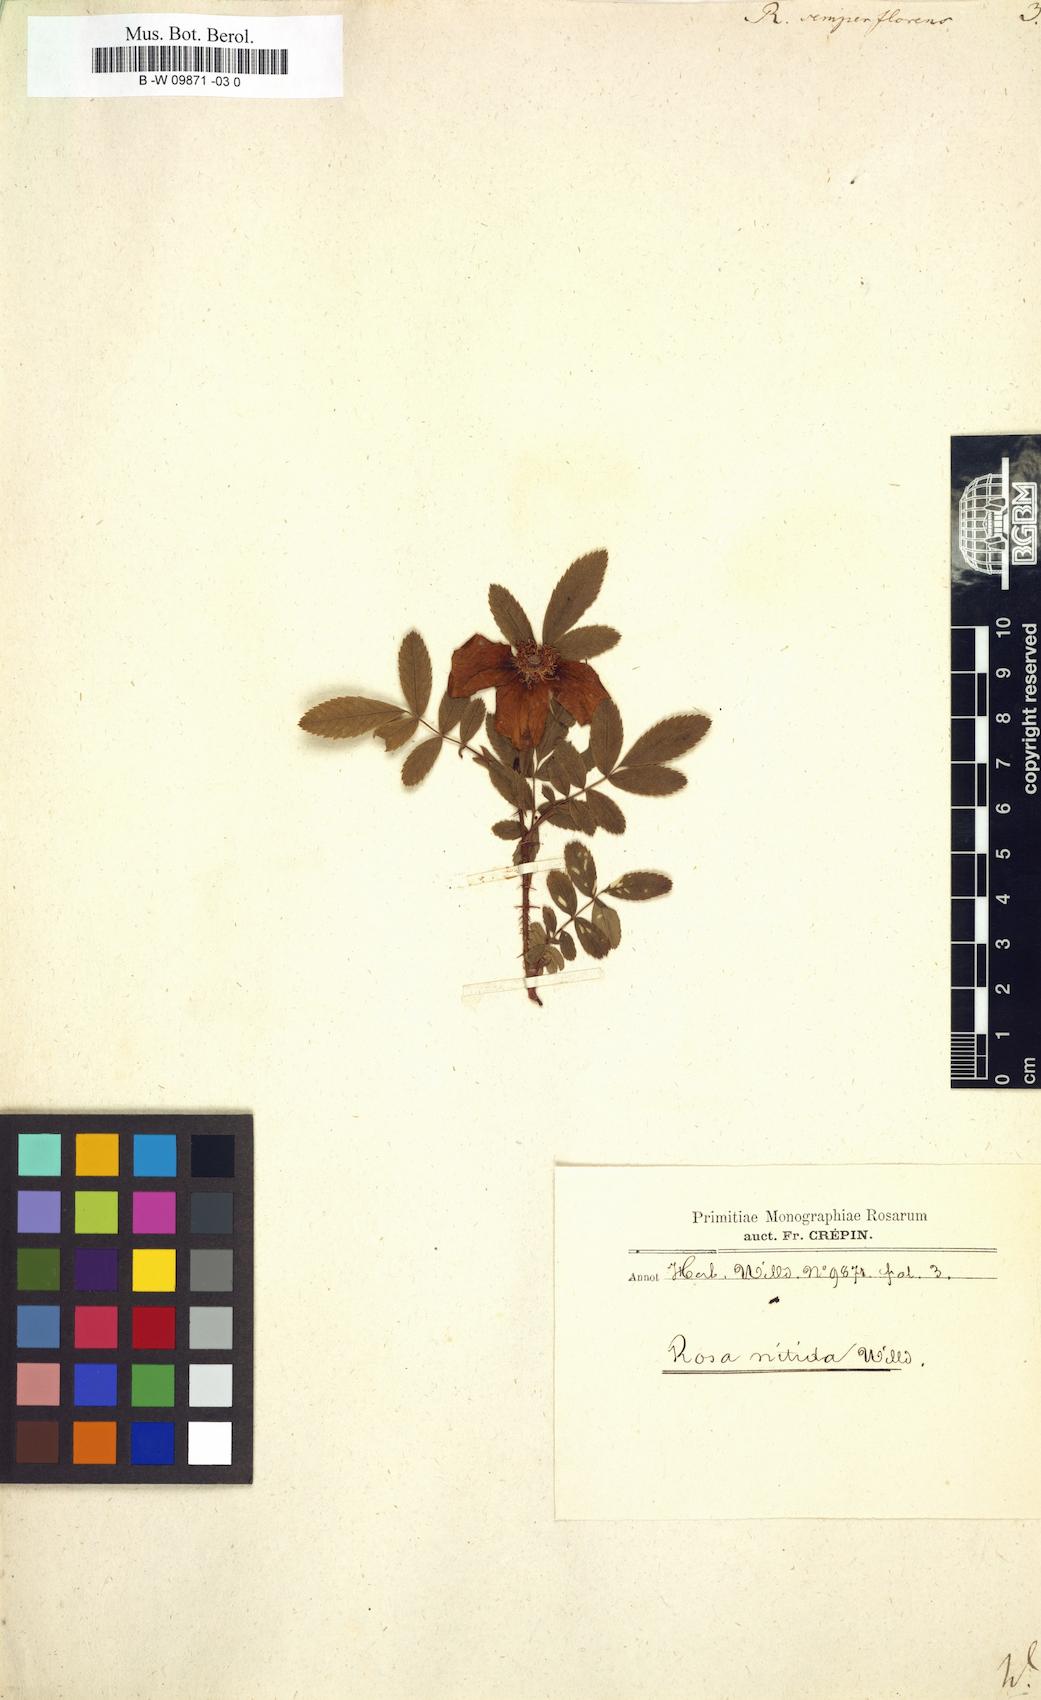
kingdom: Plantae
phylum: Tracheophyta
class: Magnoliopsida
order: Rosales
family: Rosaceae
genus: Rosa
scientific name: Rosa chinensis
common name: China rose
